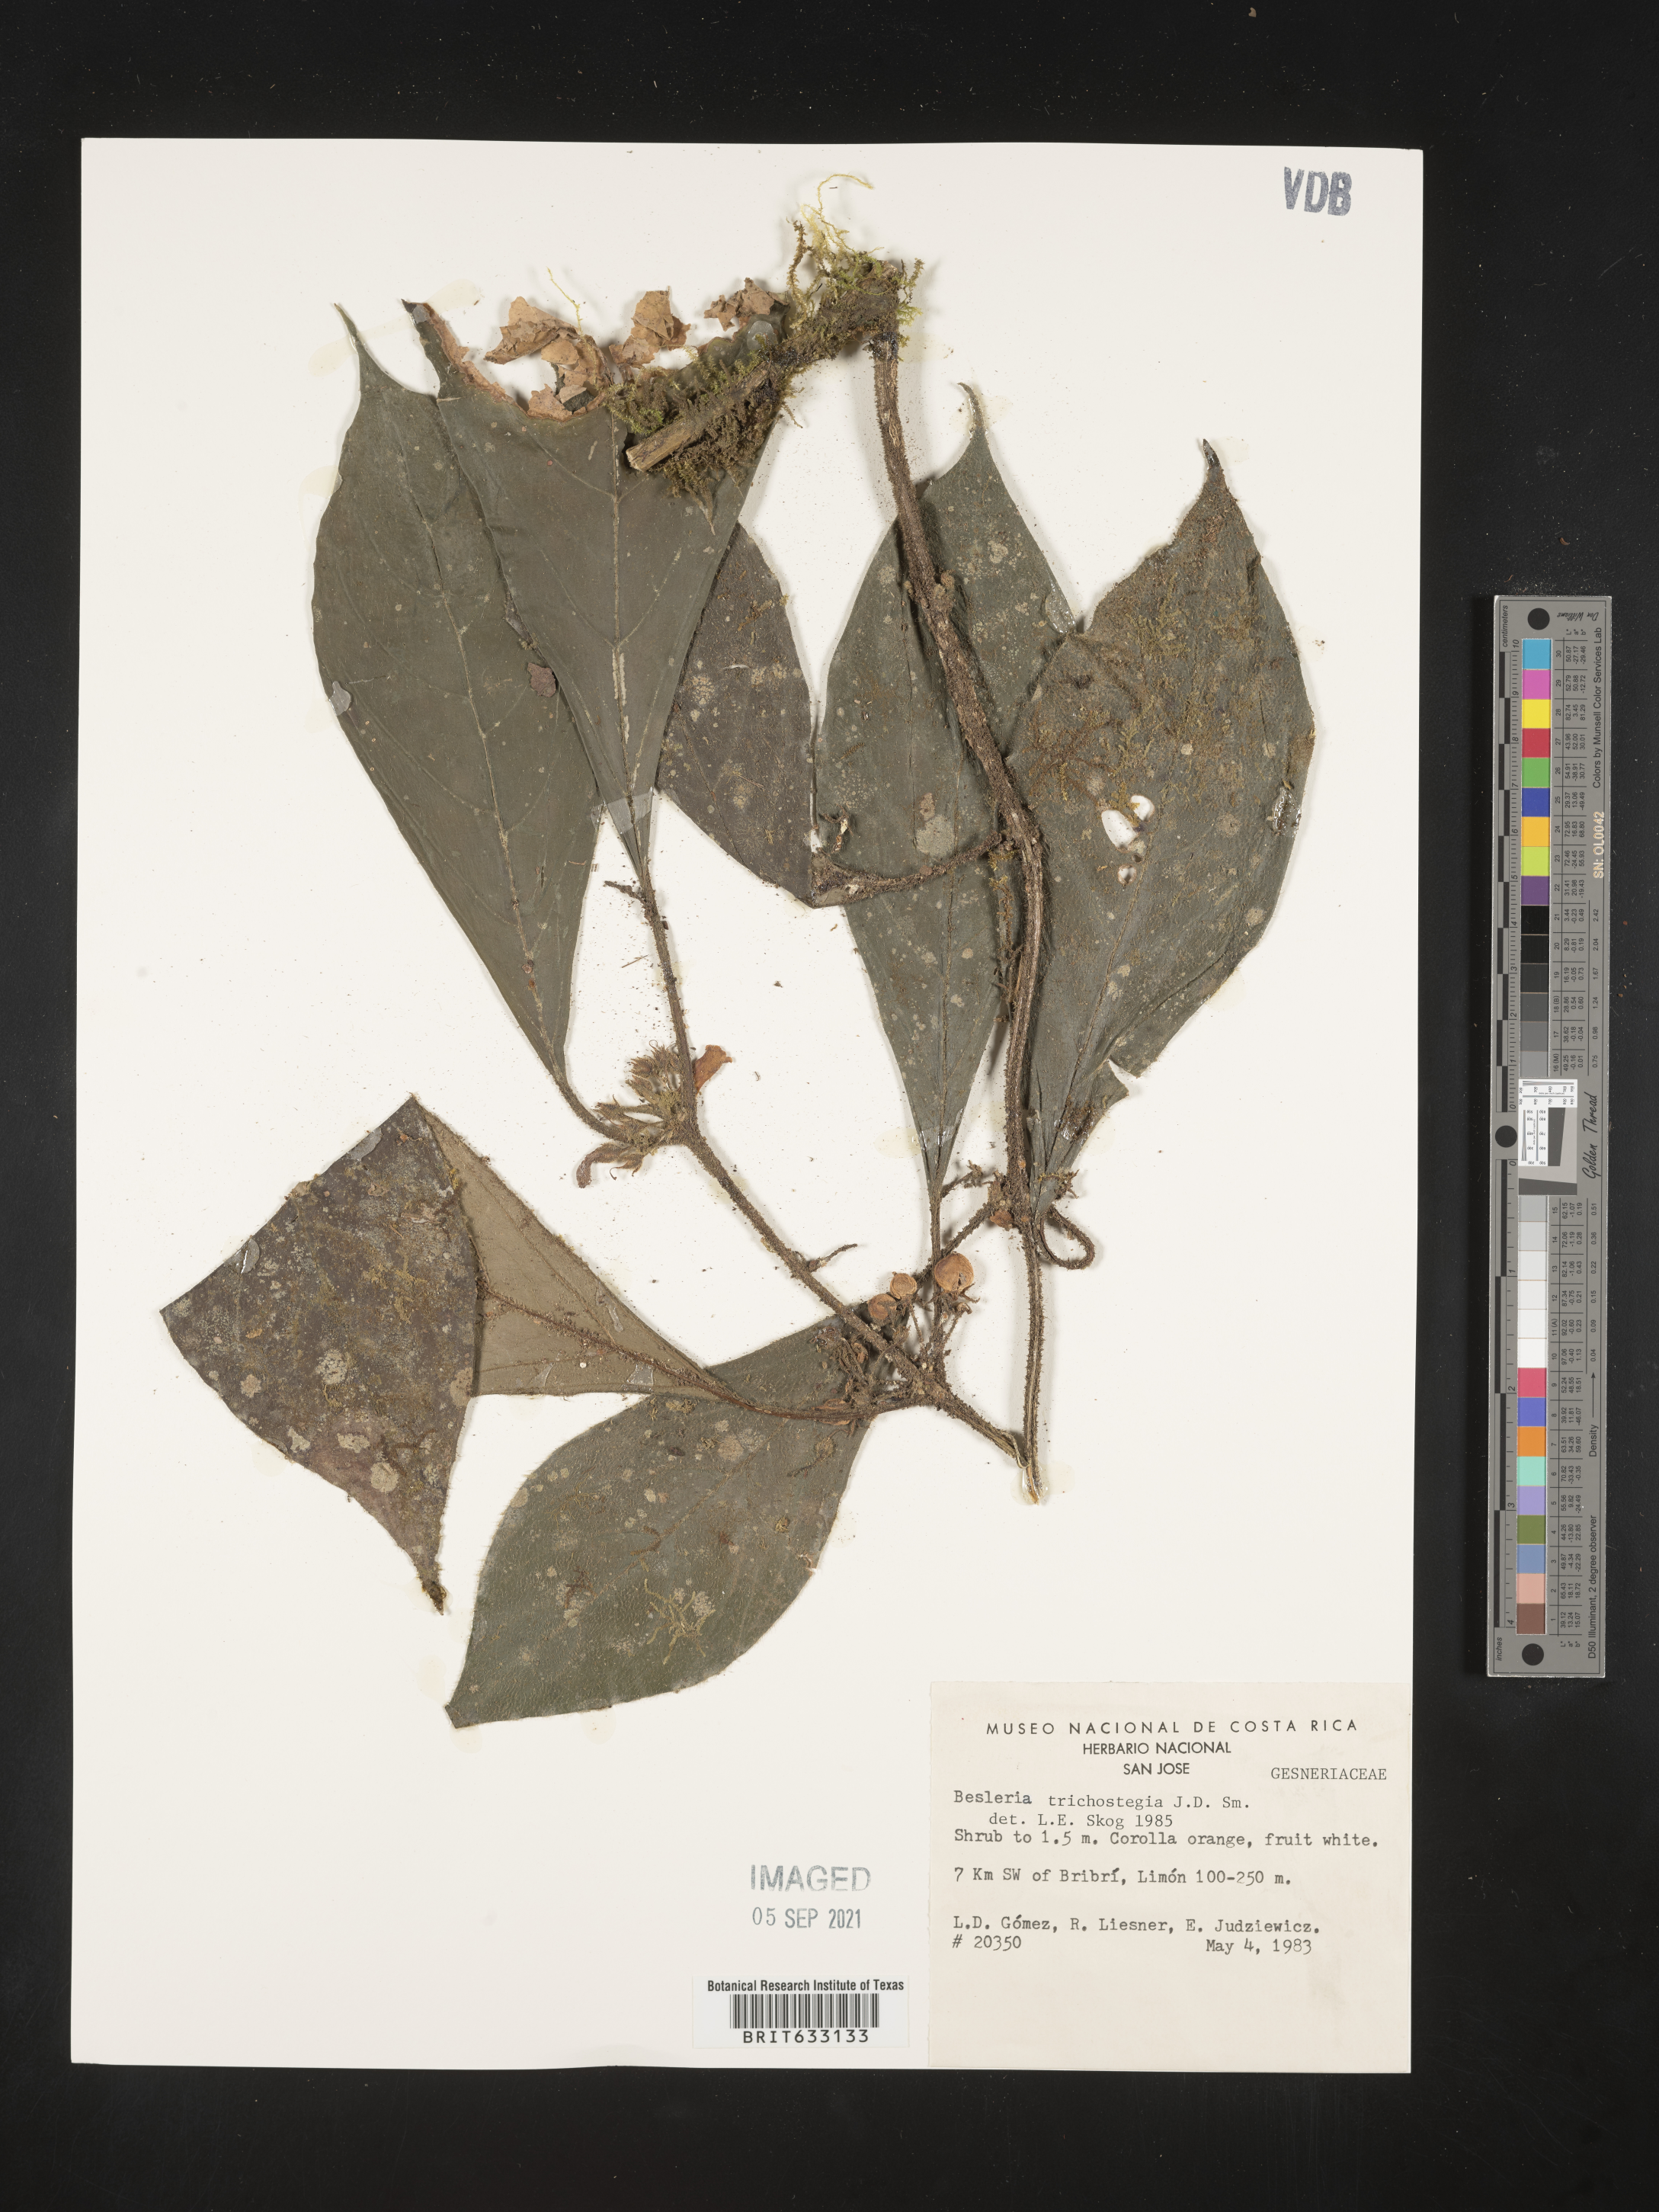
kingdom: Plantae
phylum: Tracheophyta
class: Magnoliopsida
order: Lamiales
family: Gesneriaceae
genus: Besleria
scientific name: Besleria
